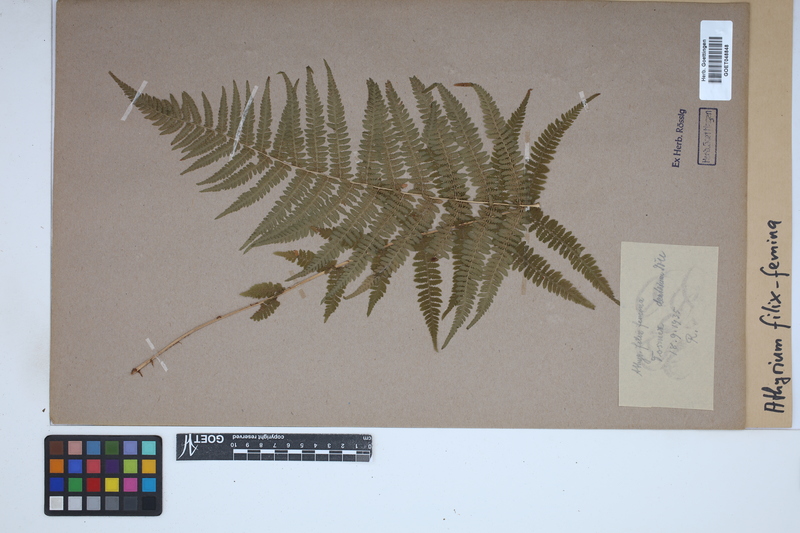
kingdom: Plantae
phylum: Tracheophyta
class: Polypodiopsida
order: Polypodiales
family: Athyriaceae
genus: Athyrium
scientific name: Athyrium filix-femina
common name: Lady fern
